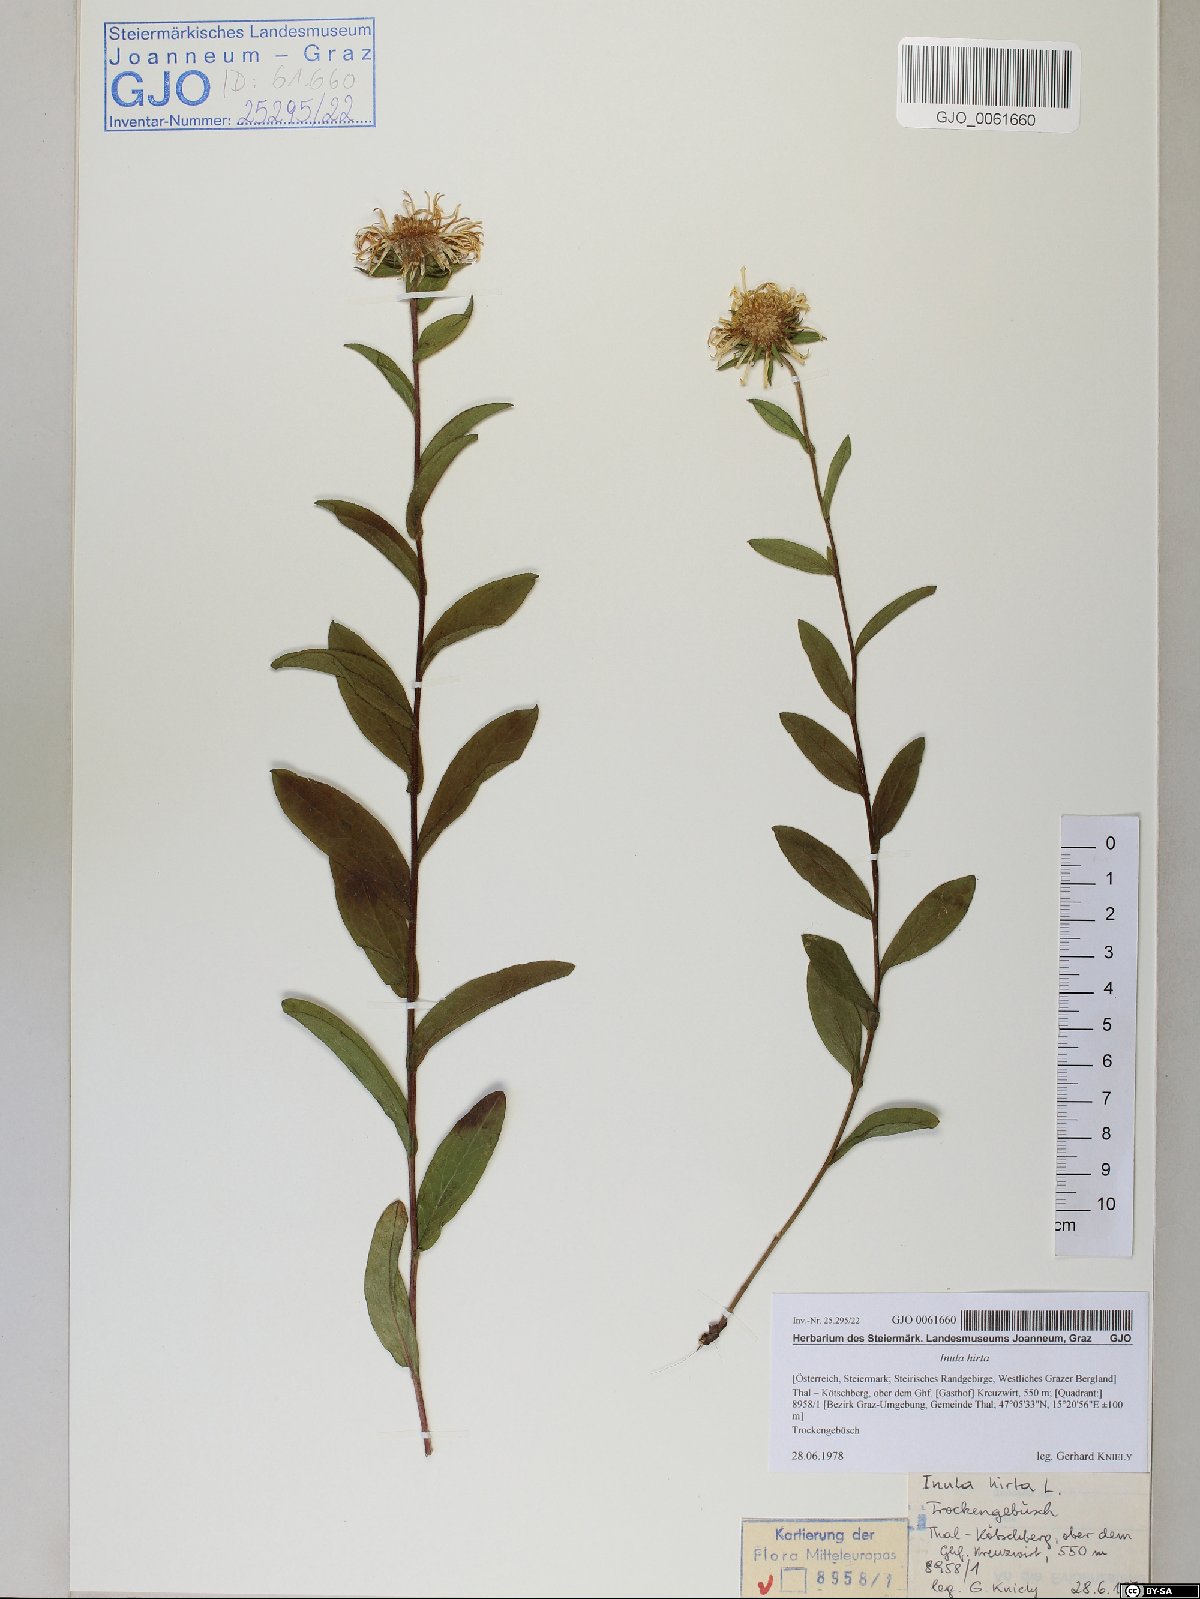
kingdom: Plantae
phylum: Tracheophyta
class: Magnoliopsida
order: Asterales
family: Asteraceae
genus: Pentanema
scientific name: Pentanema hirtum
